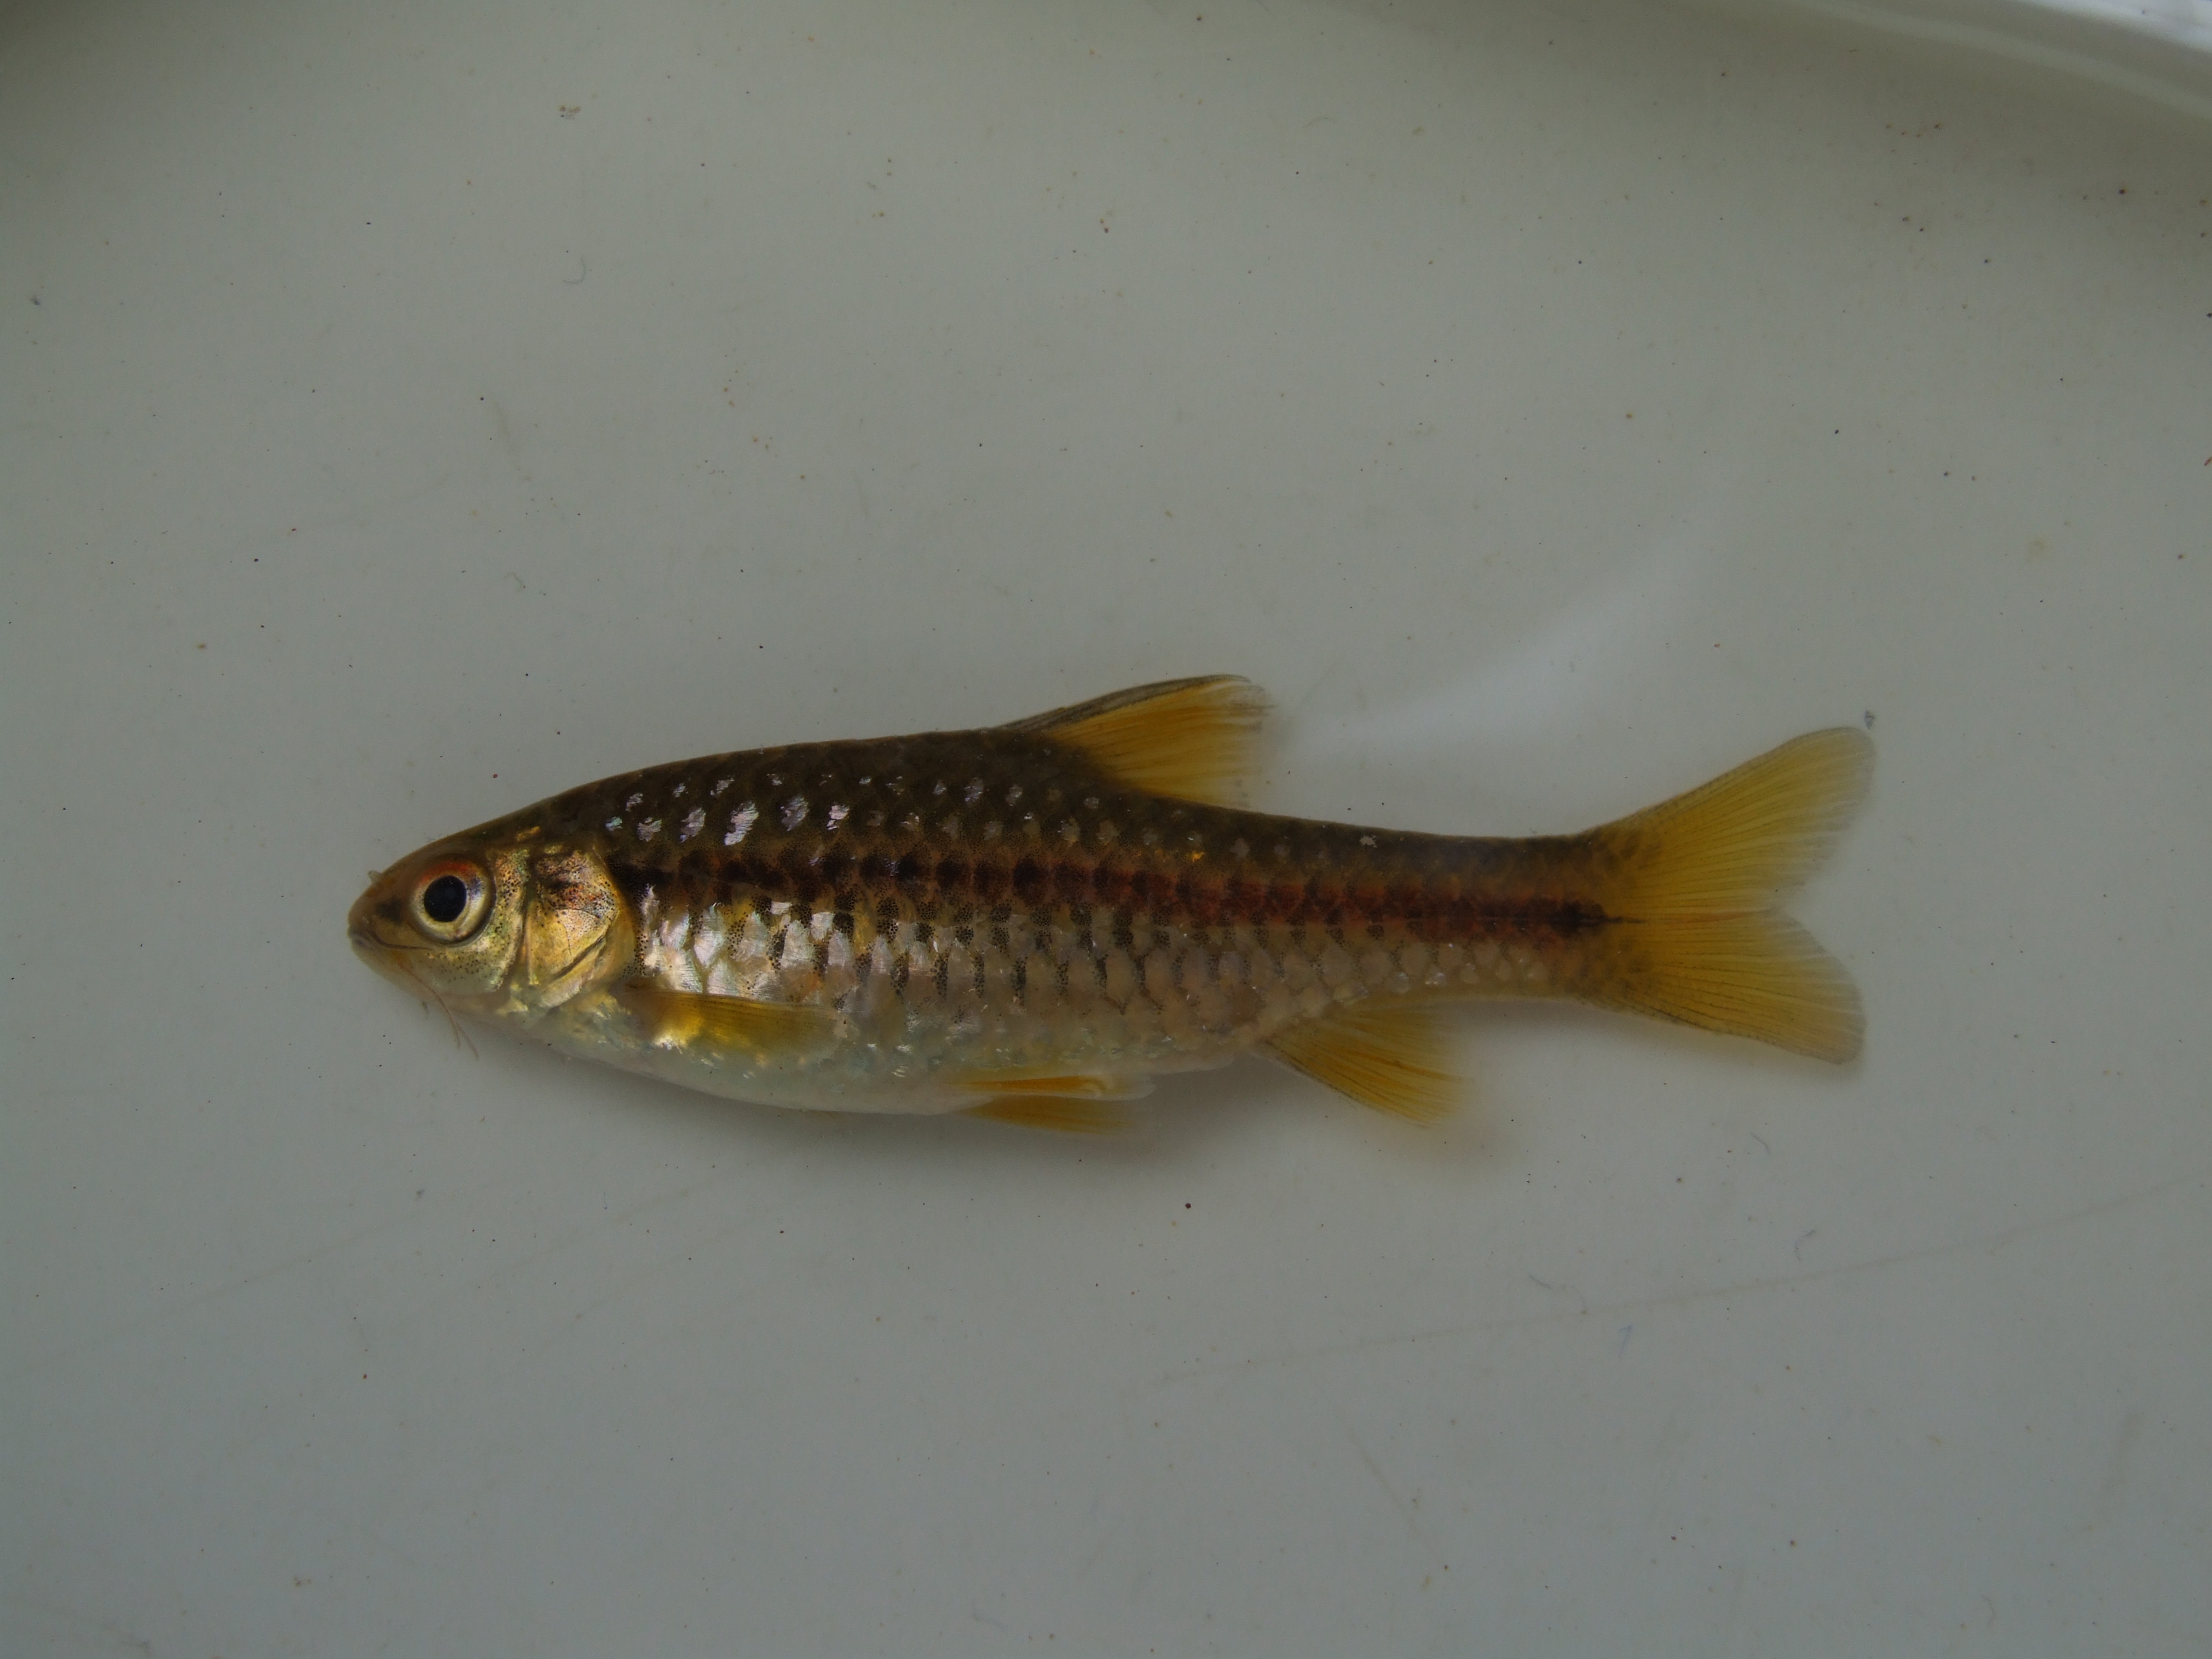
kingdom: Animalia
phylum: Chordata
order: Cypriniformes
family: Cyprinidae
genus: Barbus
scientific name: Barbus
